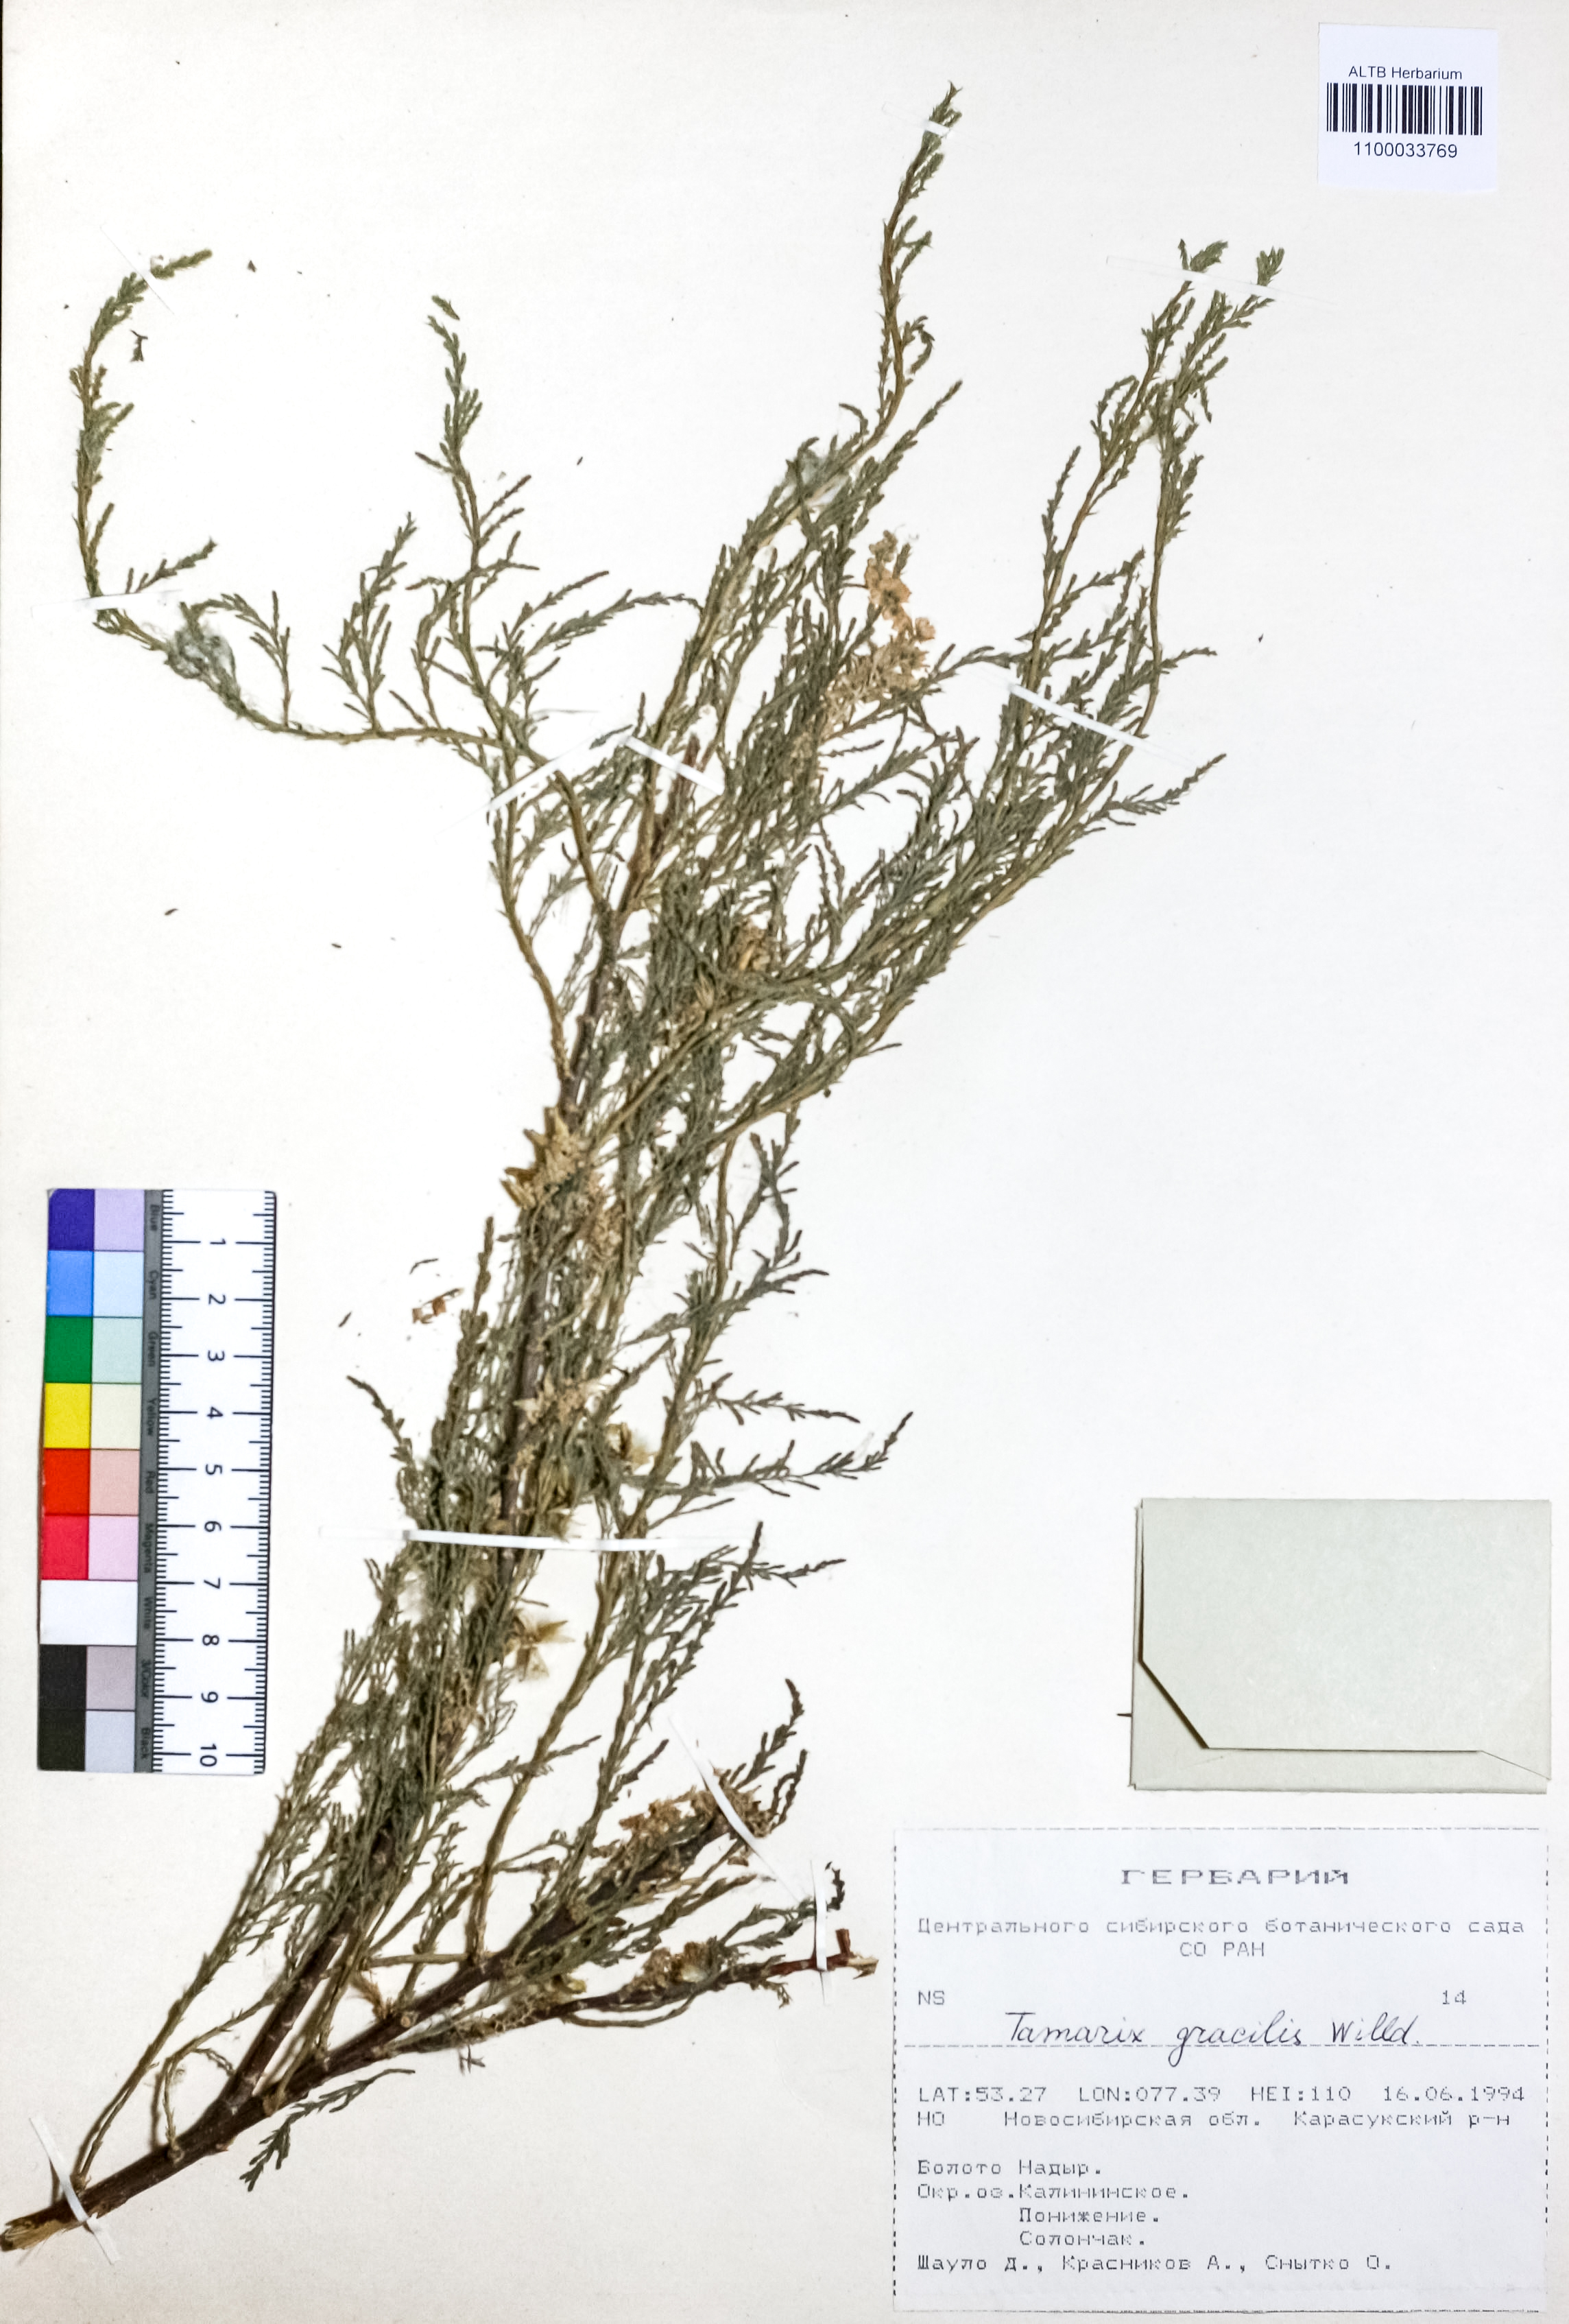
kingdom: Plantae
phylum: Tracheophyta
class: Magnoliopsida
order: Caryophyllales
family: Tamaricaceae
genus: Tamarix
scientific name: Tamarix gracilis
